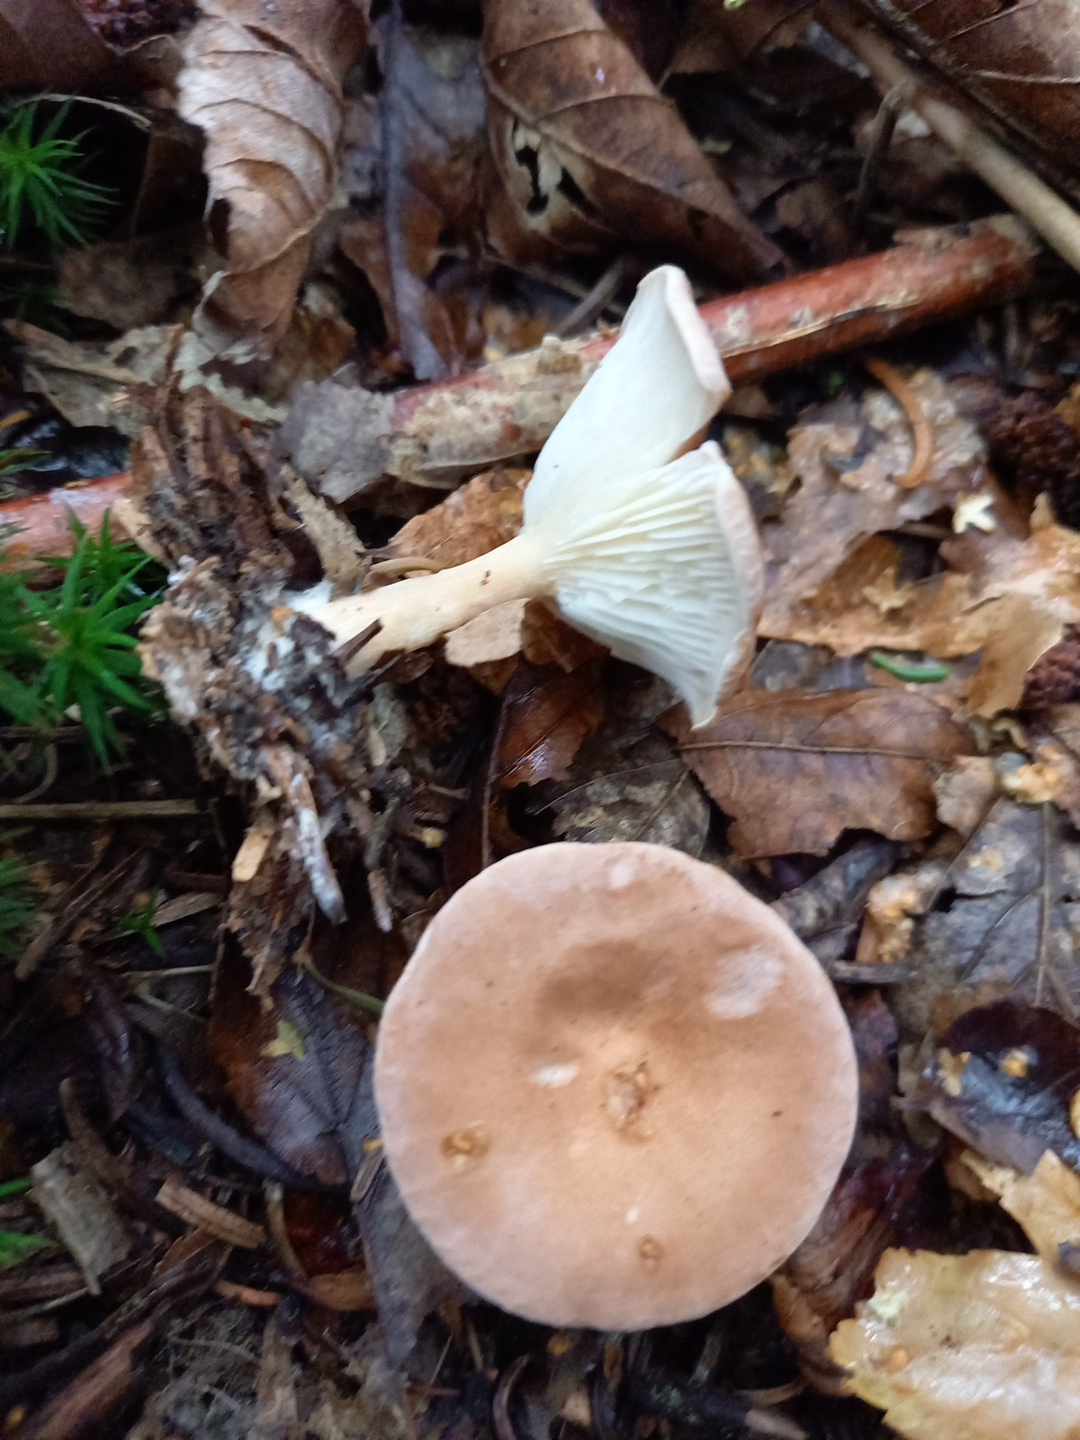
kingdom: Fungi
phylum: Basidiomycota
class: Agaricomycetes
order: Agaricales
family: Tricholomataceae
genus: Infundibulicybe
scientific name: Infundibulicybe gibba
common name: almindelig tragthat
